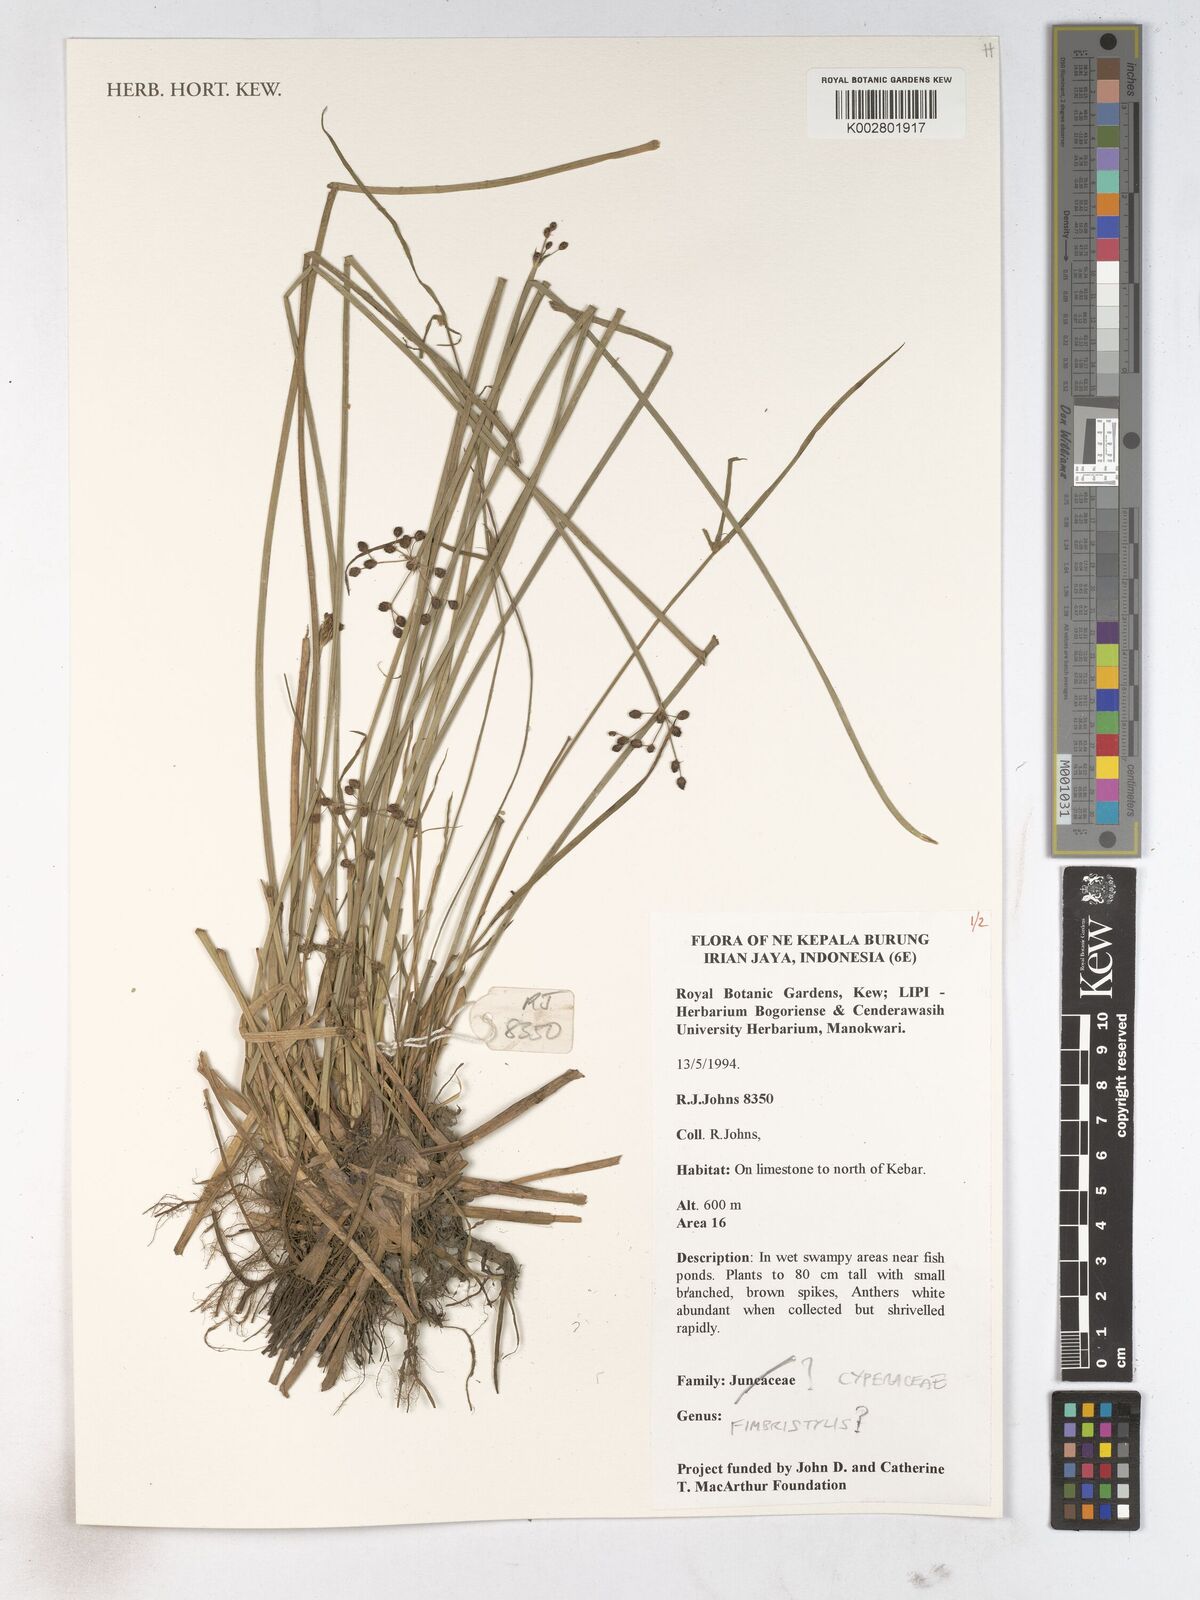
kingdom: Plantae
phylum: Tracheophyta
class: Liliopsida
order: Poales
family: Cyperaceae
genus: Fimbristylis
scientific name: Fimbristylis
